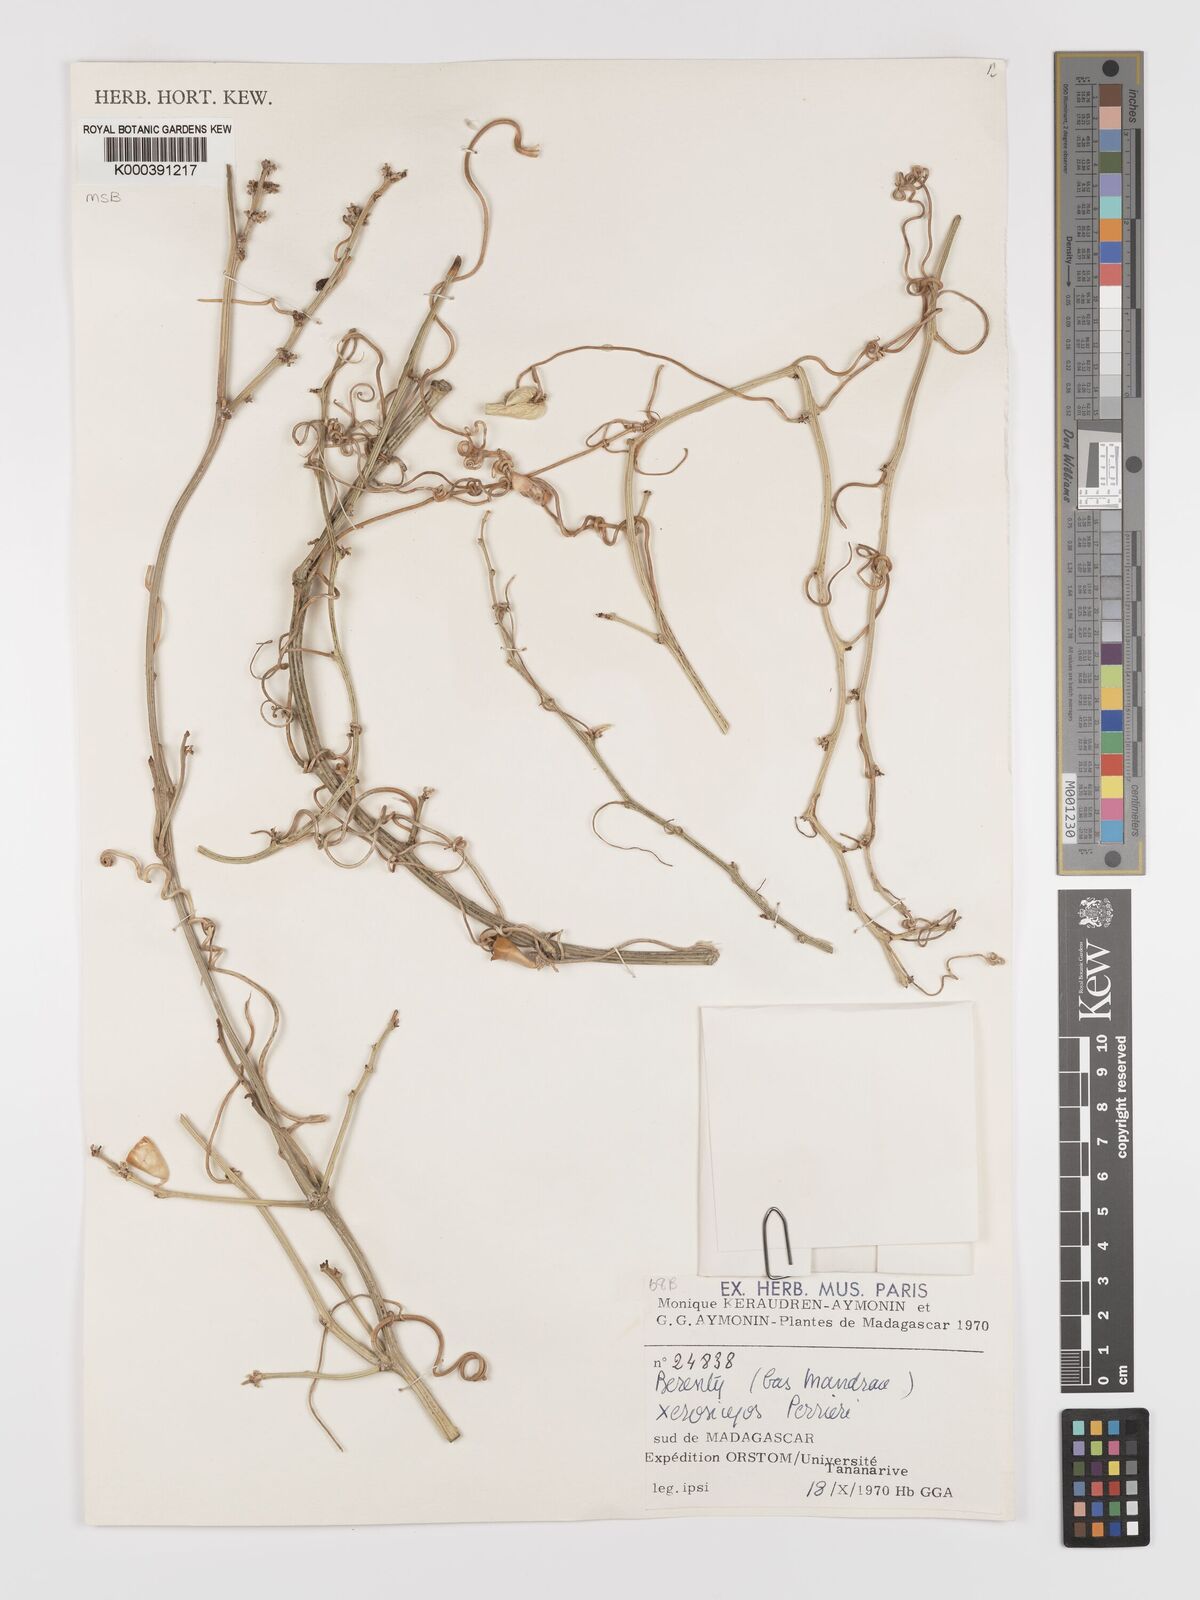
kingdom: Plantae
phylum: Tracheophyta
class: Magnoliopsida
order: Cucurbitales
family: Cucurbitaceae
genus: Xerosicyos
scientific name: Xerosicyos perrieri
